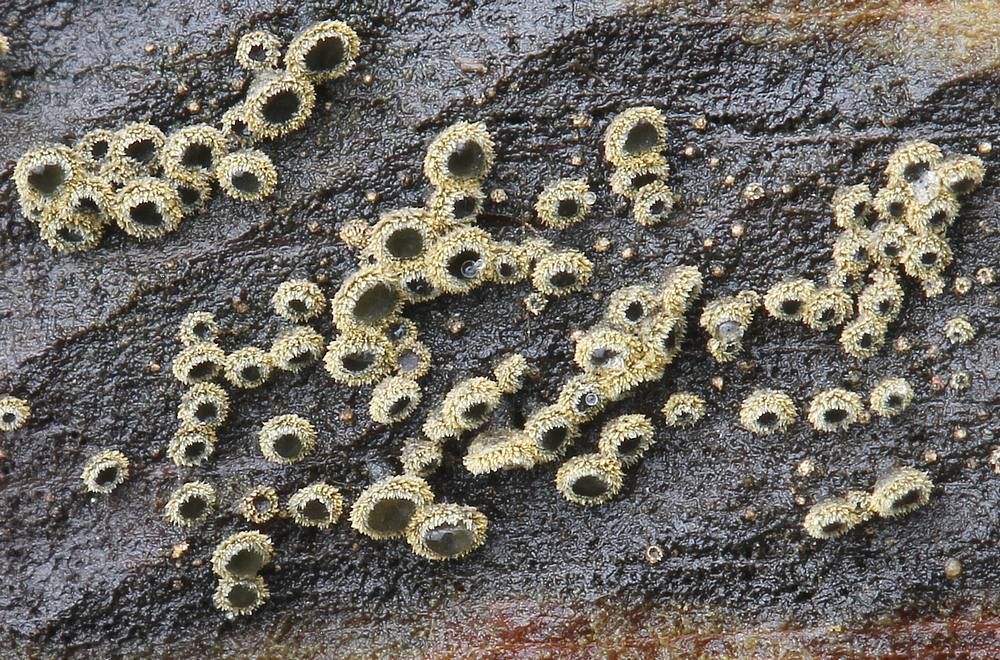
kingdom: Fungi
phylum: Ascomycota
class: Leotiomycetes
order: Helotiales
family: Lachnaceae
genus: Neodasyscypha
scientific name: Neodasyscypha cerina
